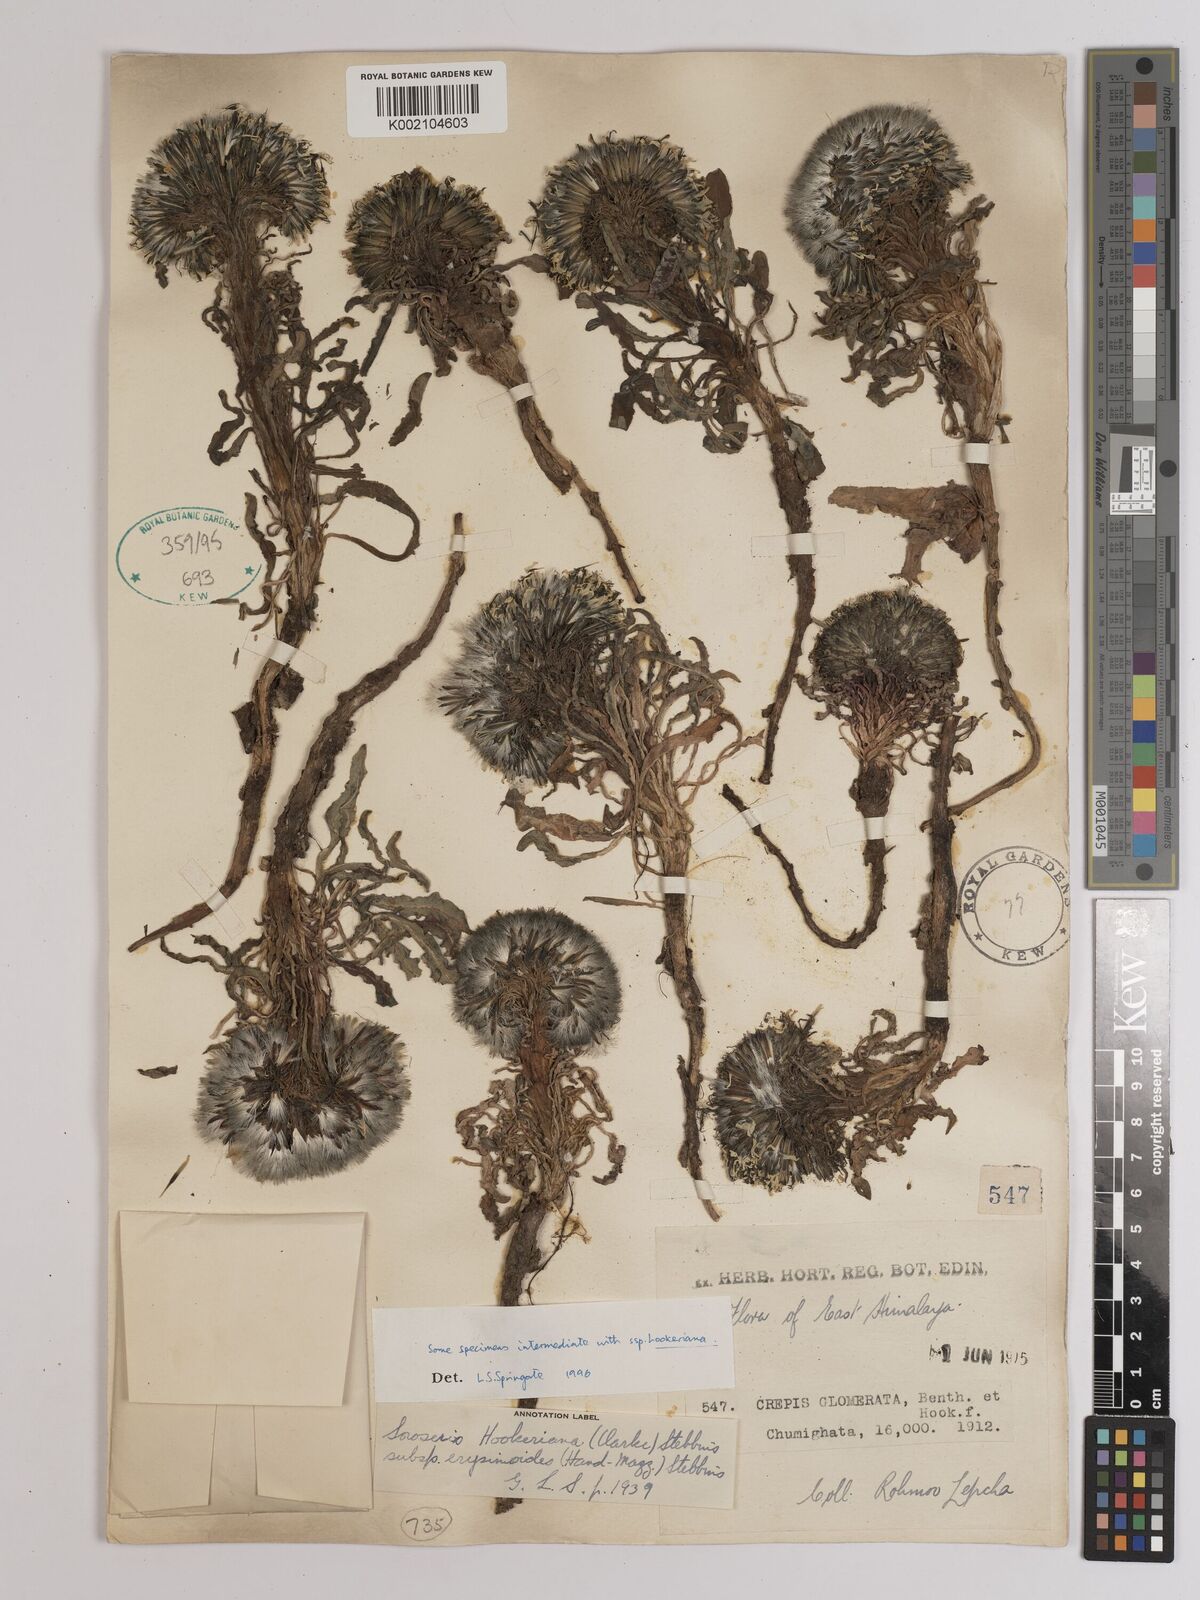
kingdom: Plantae
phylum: Tracheophyta
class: Magnoliopsida
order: Asterales
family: Asteraceae
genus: Soroseris
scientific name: Soroseris hookeriana
